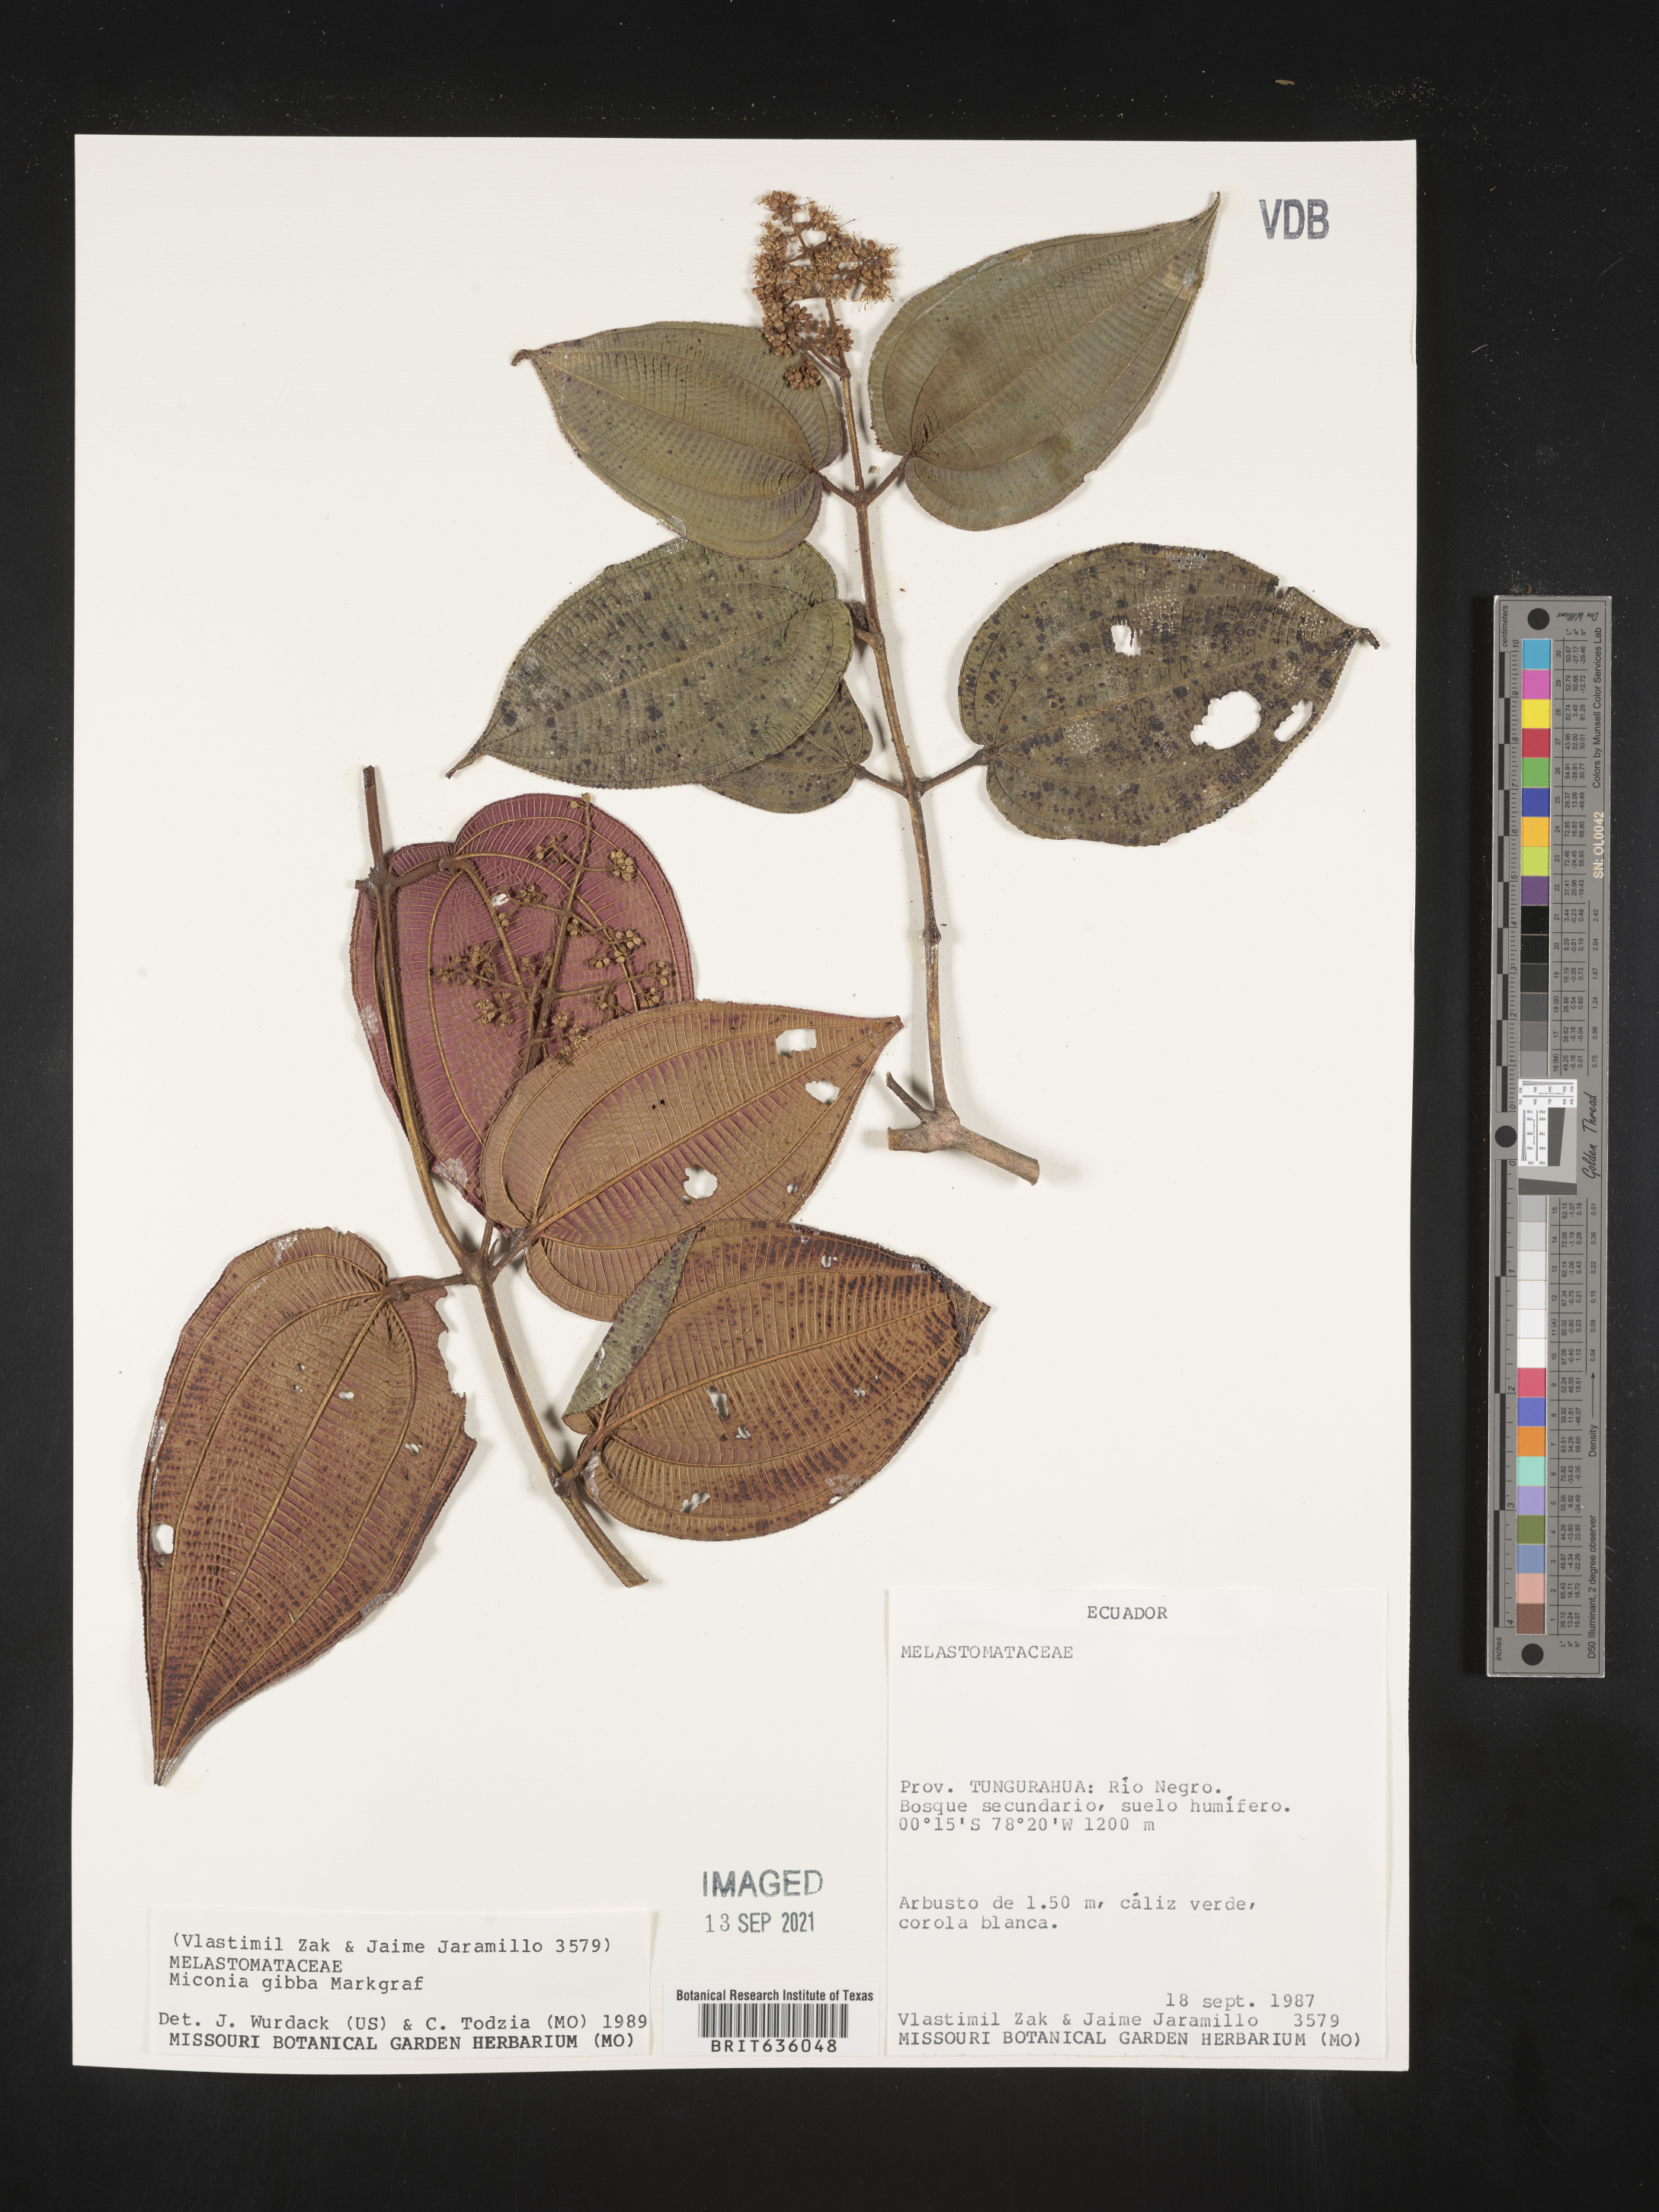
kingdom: Plantae
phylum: Tracheophyta
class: Magnoliopsida
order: Myrtales
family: Melastomataceae
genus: Miconia
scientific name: Miconia
